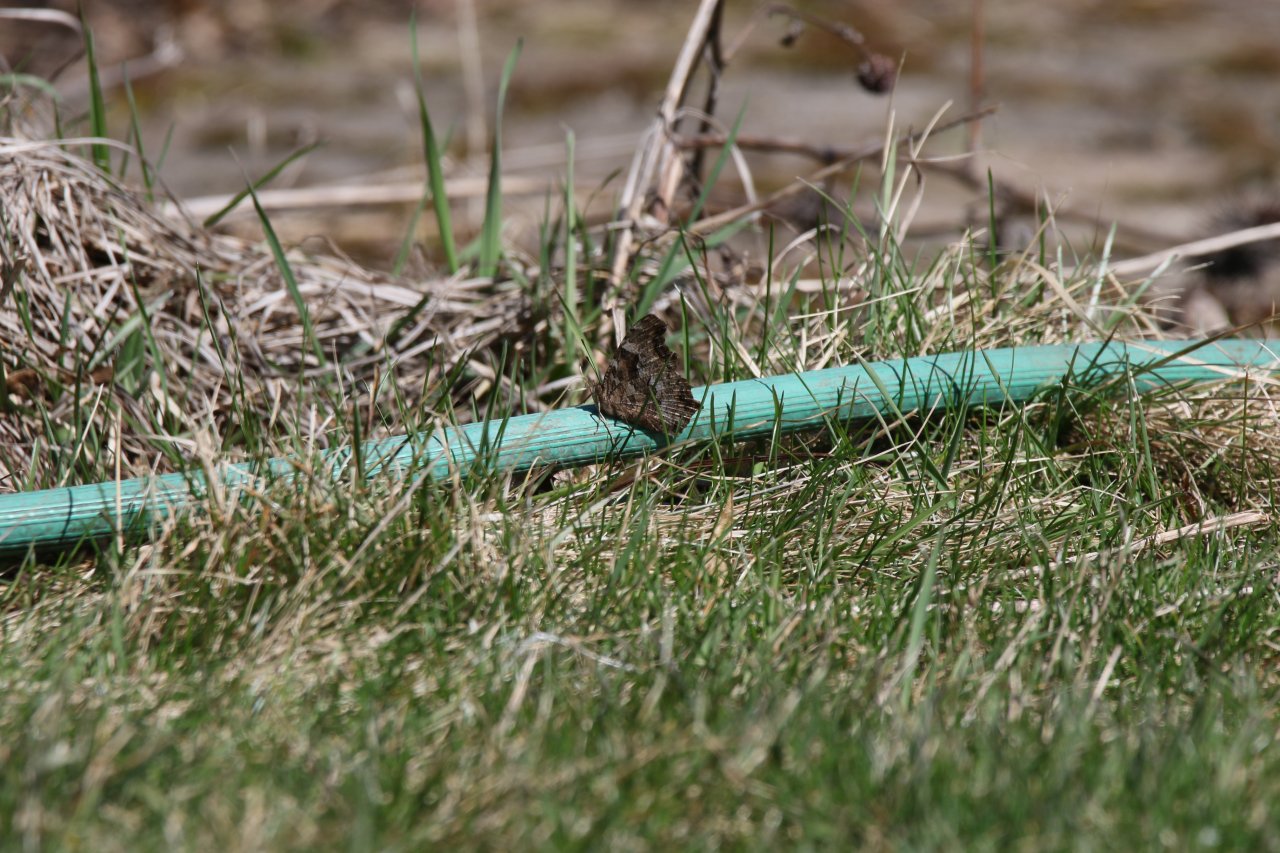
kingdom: Animalia
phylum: Arthropoda
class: Insecta
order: Lepidoptera
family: Nymphalidae
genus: Polygonia
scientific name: Polygonia vaualbum
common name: Compton Tortoiseshell
